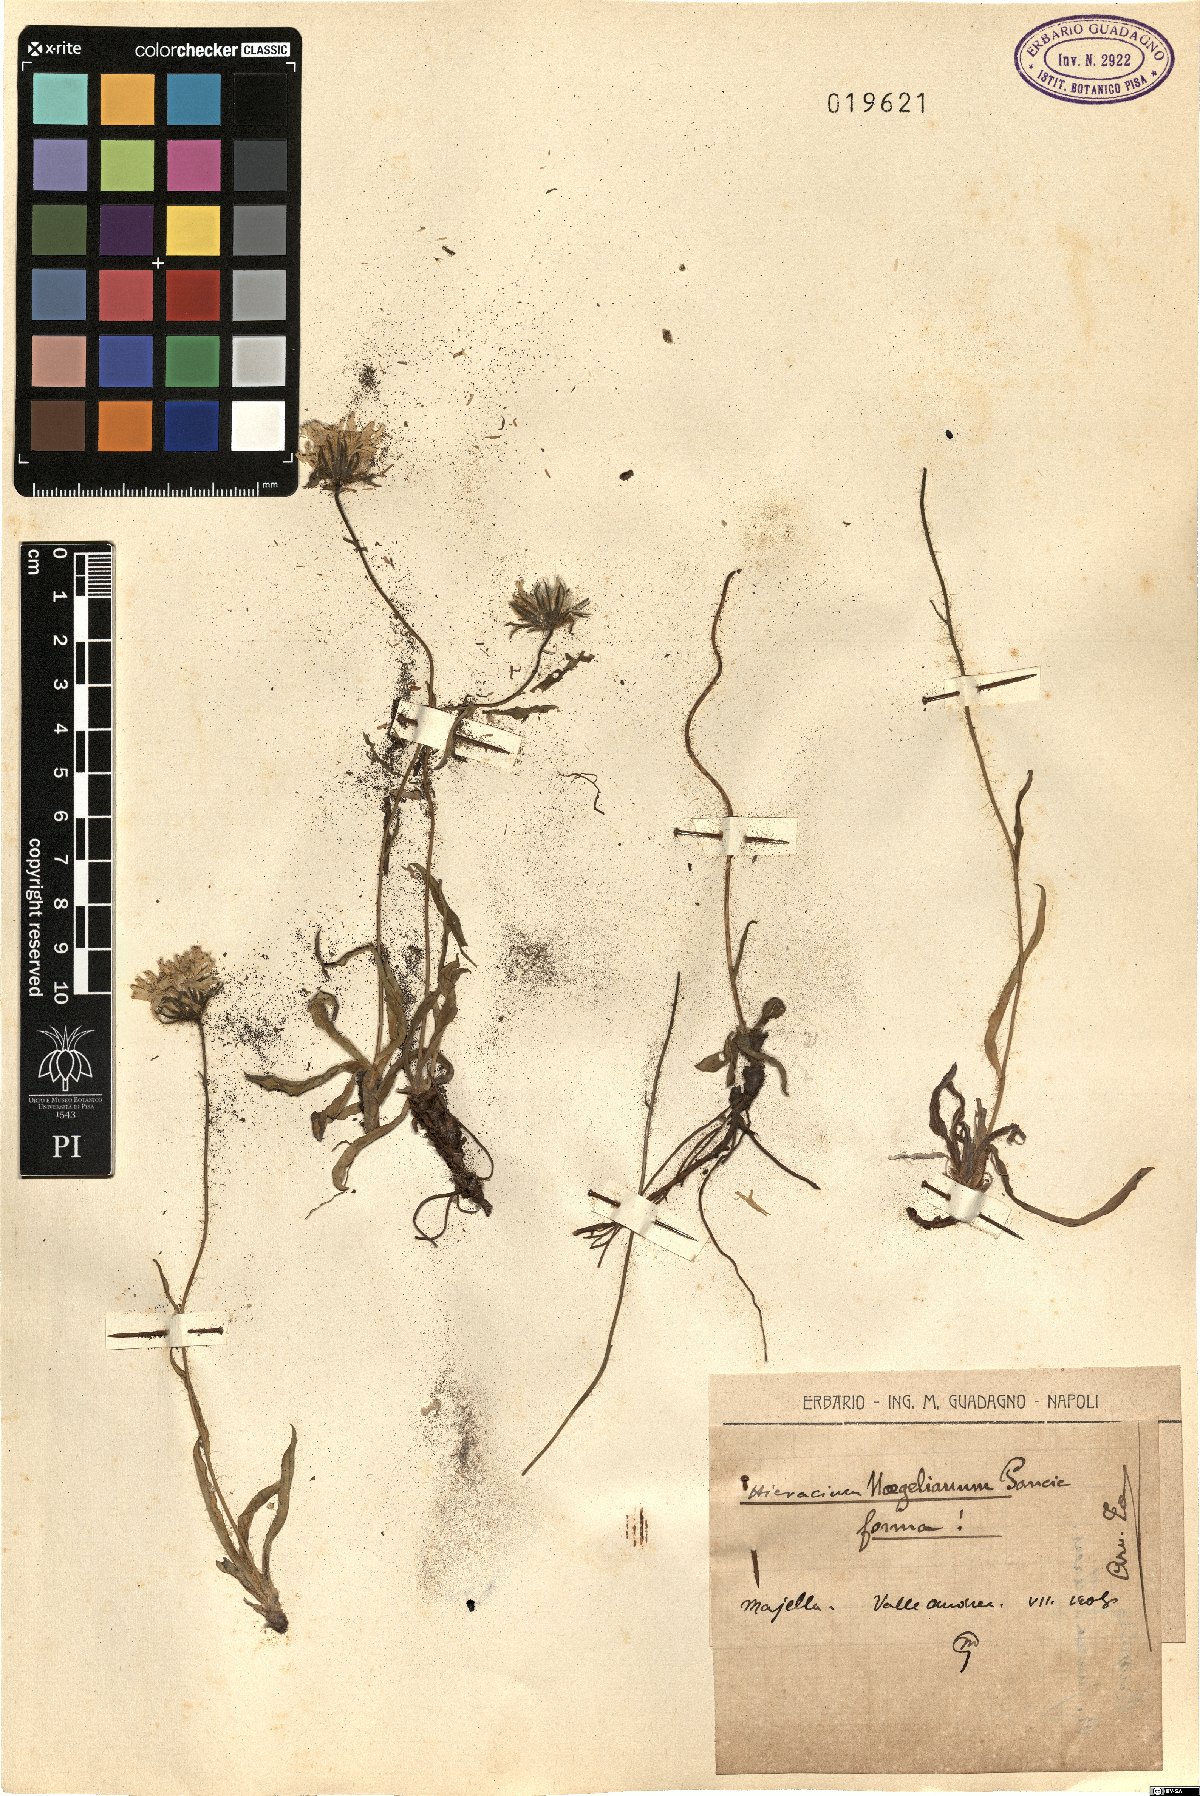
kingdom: Plantae
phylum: Tracheophyta
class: Magnoliopsida
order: Asterales
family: Asteraceae
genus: Hieracium
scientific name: Hieracium naegelianum
